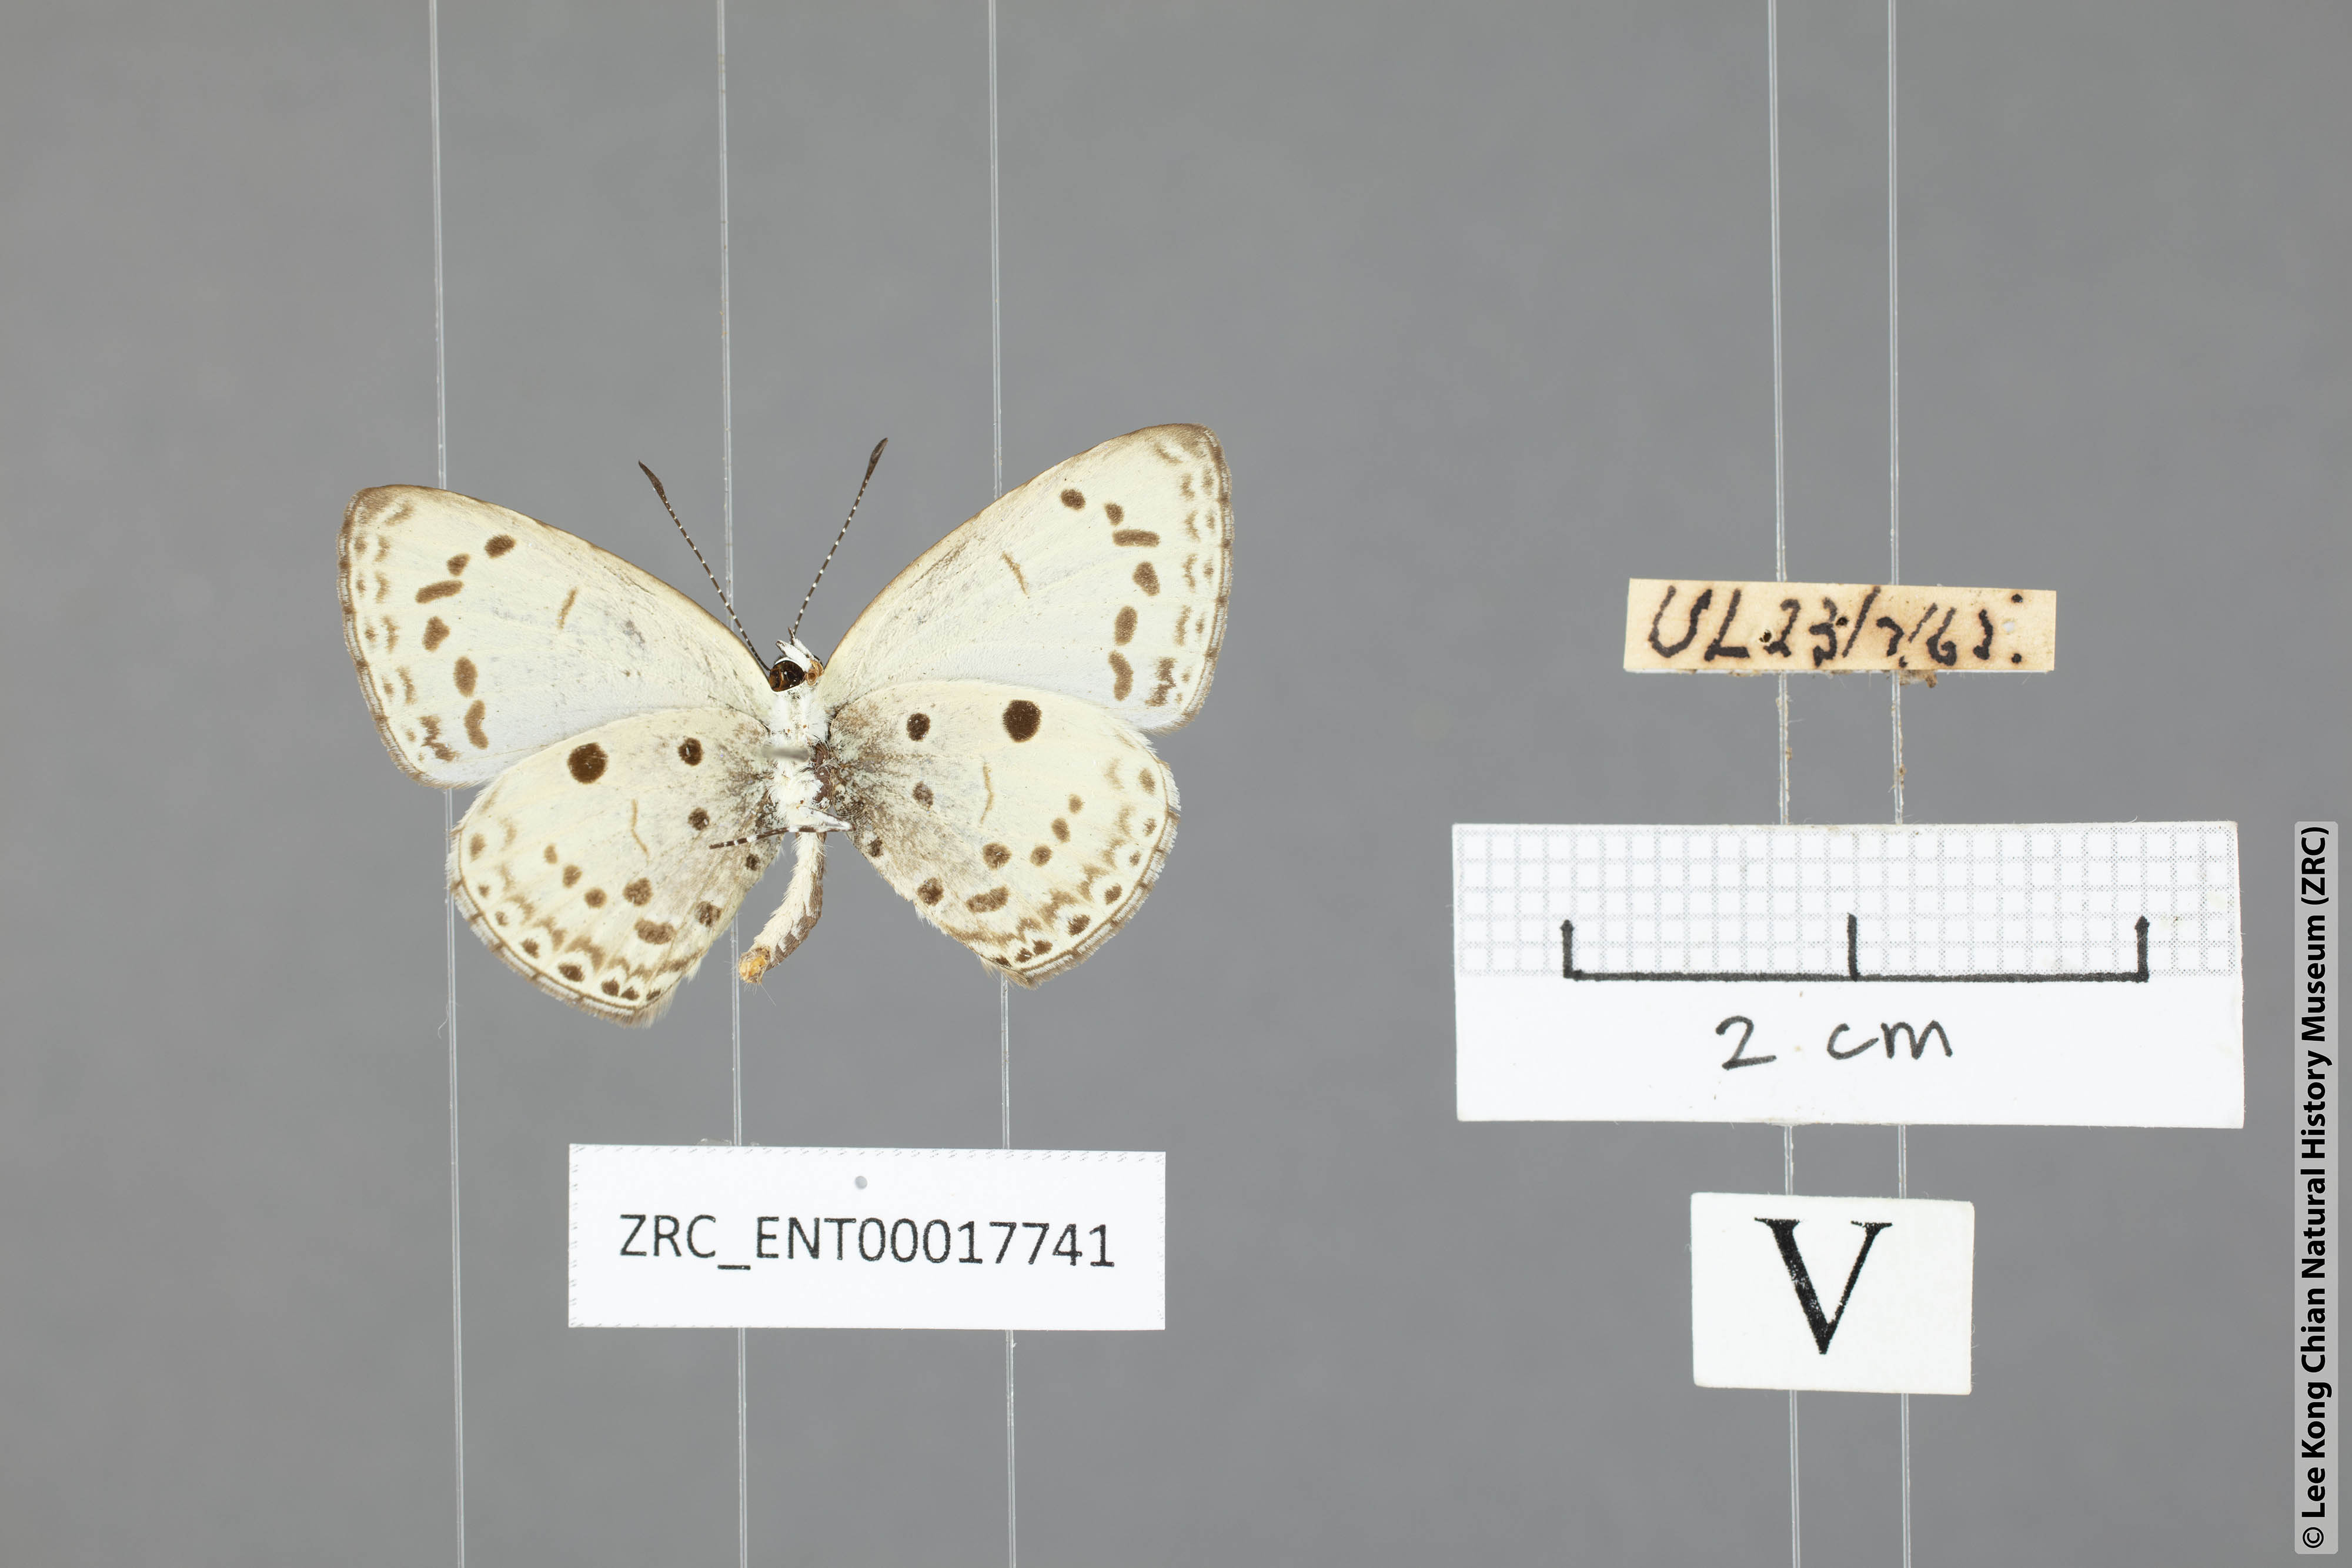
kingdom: Animalia
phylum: Arthropoda
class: Insecta
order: Lepidoptera
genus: Plautella
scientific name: Plautella
